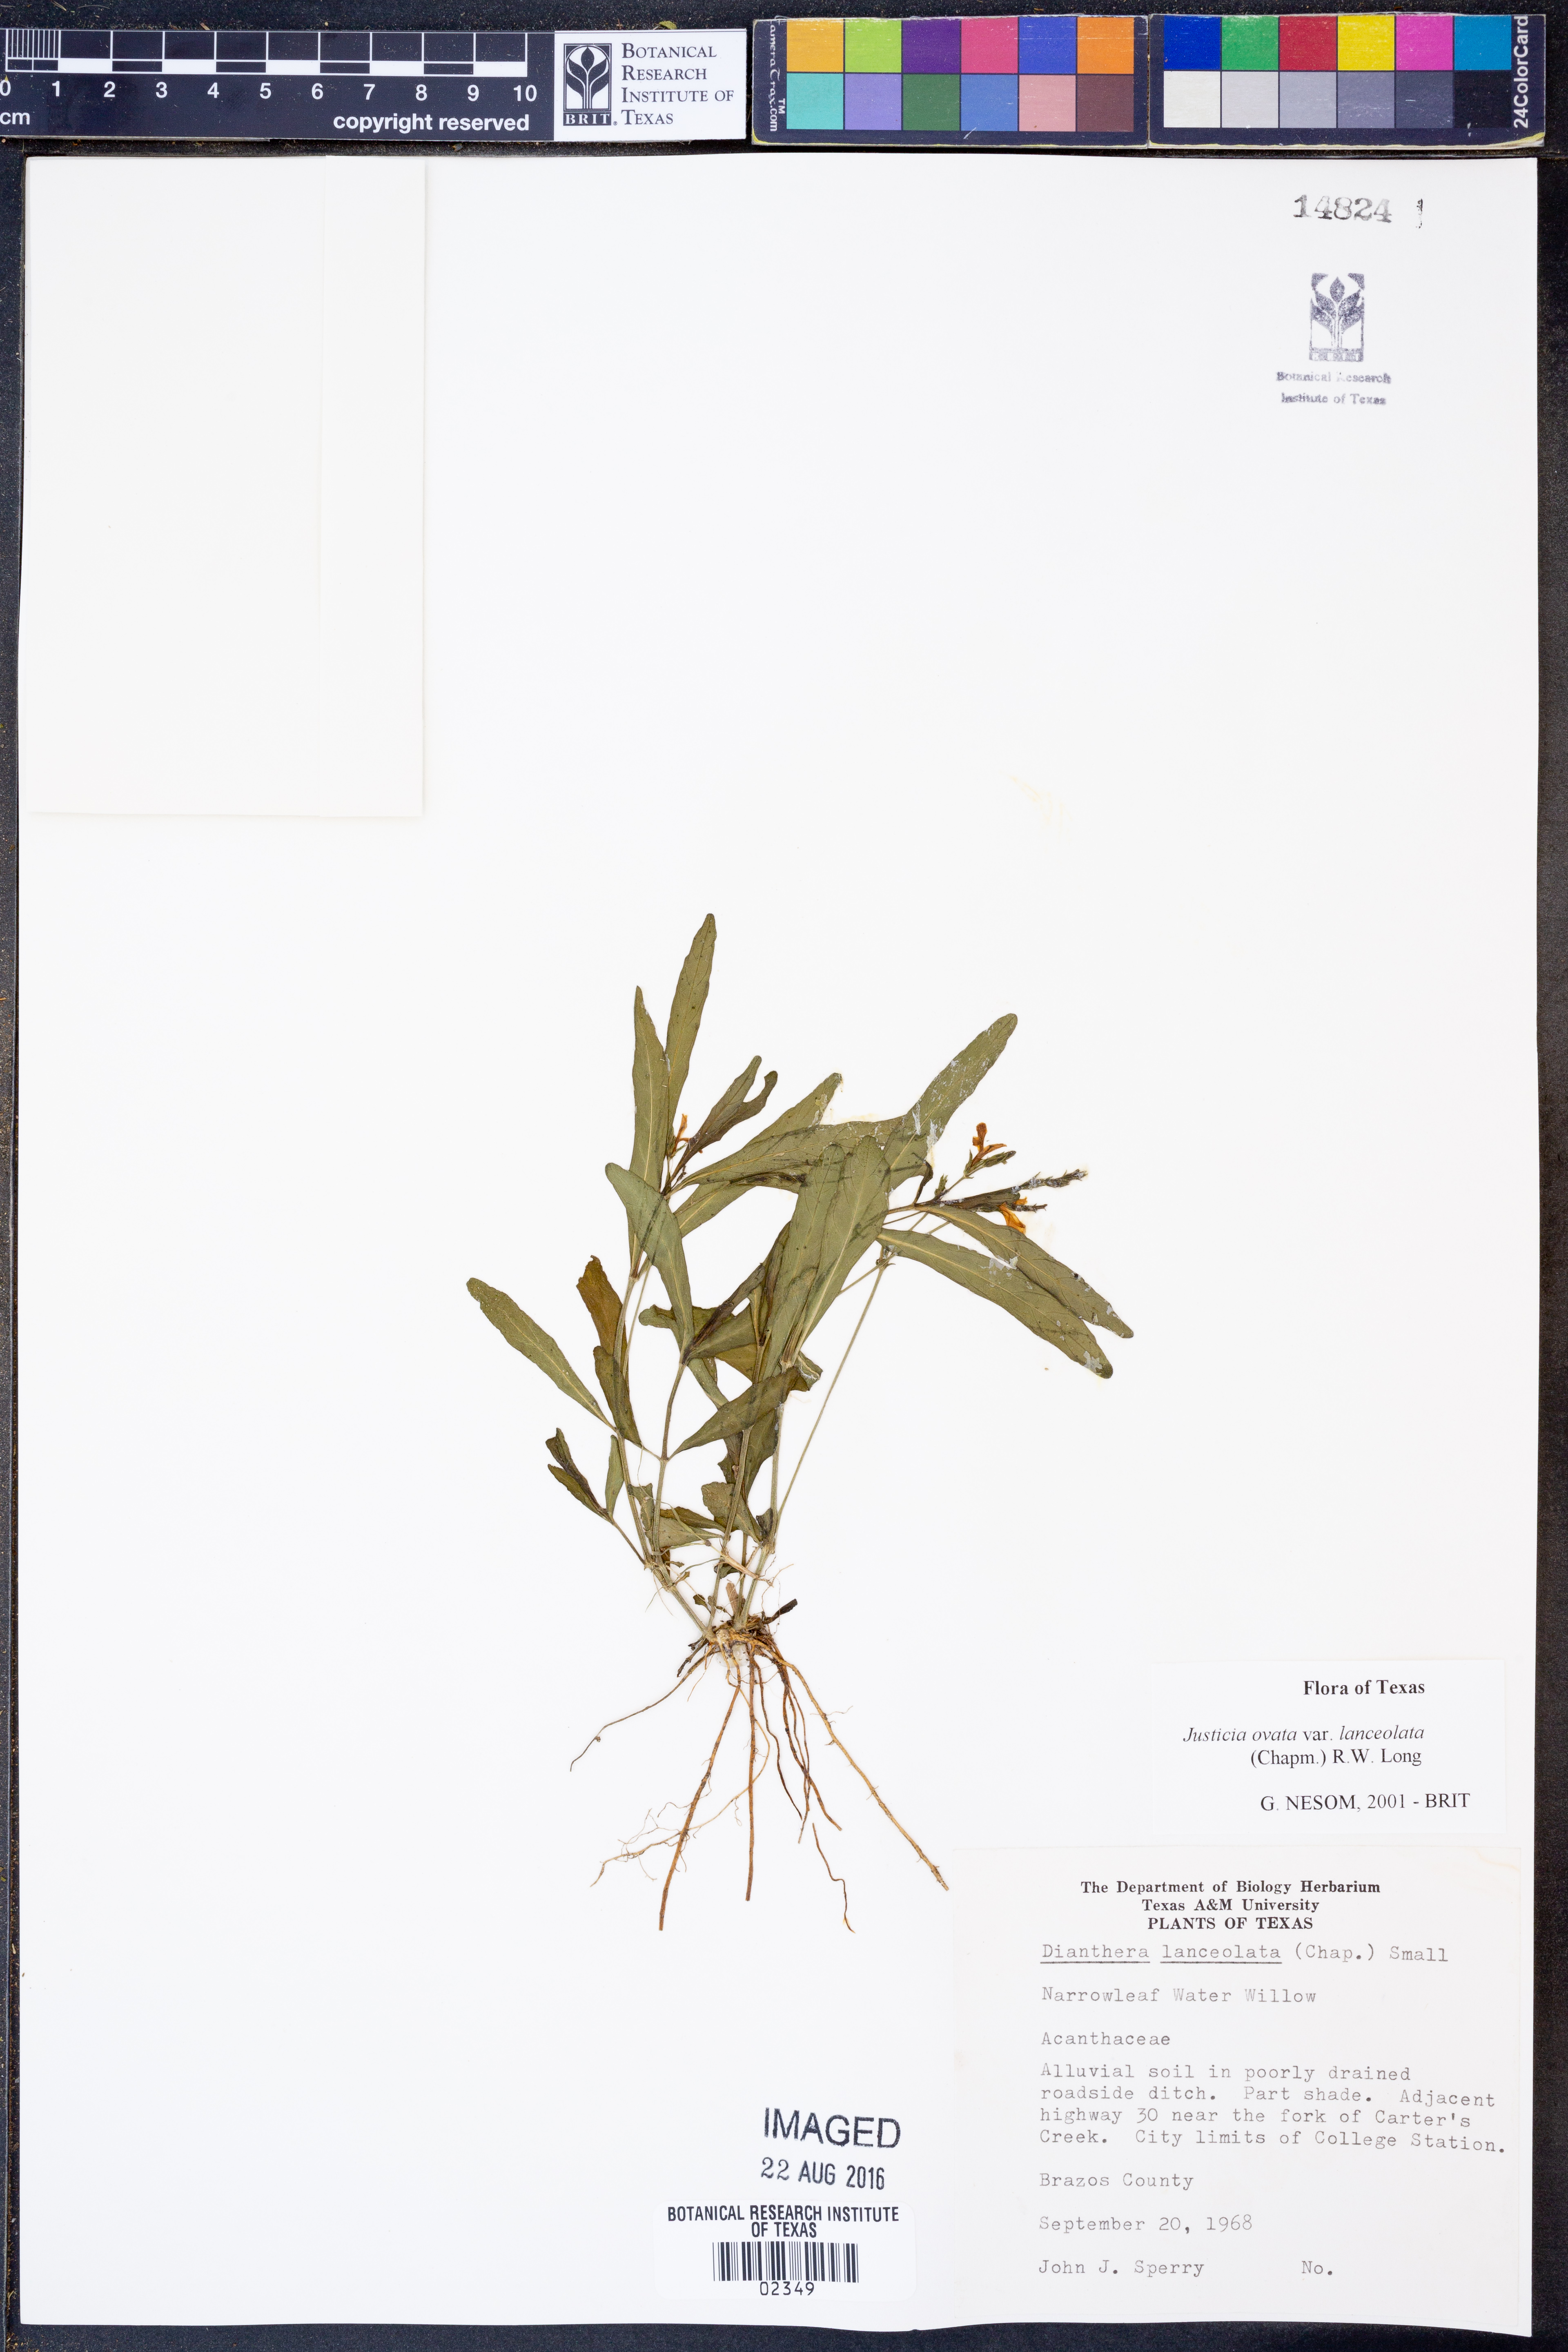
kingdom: Plantae
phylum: Tracheophyta
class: Magnoliopsida
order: Lamiales
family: Acanthaceae
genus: Justicia
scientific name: Justicia lanceolata
